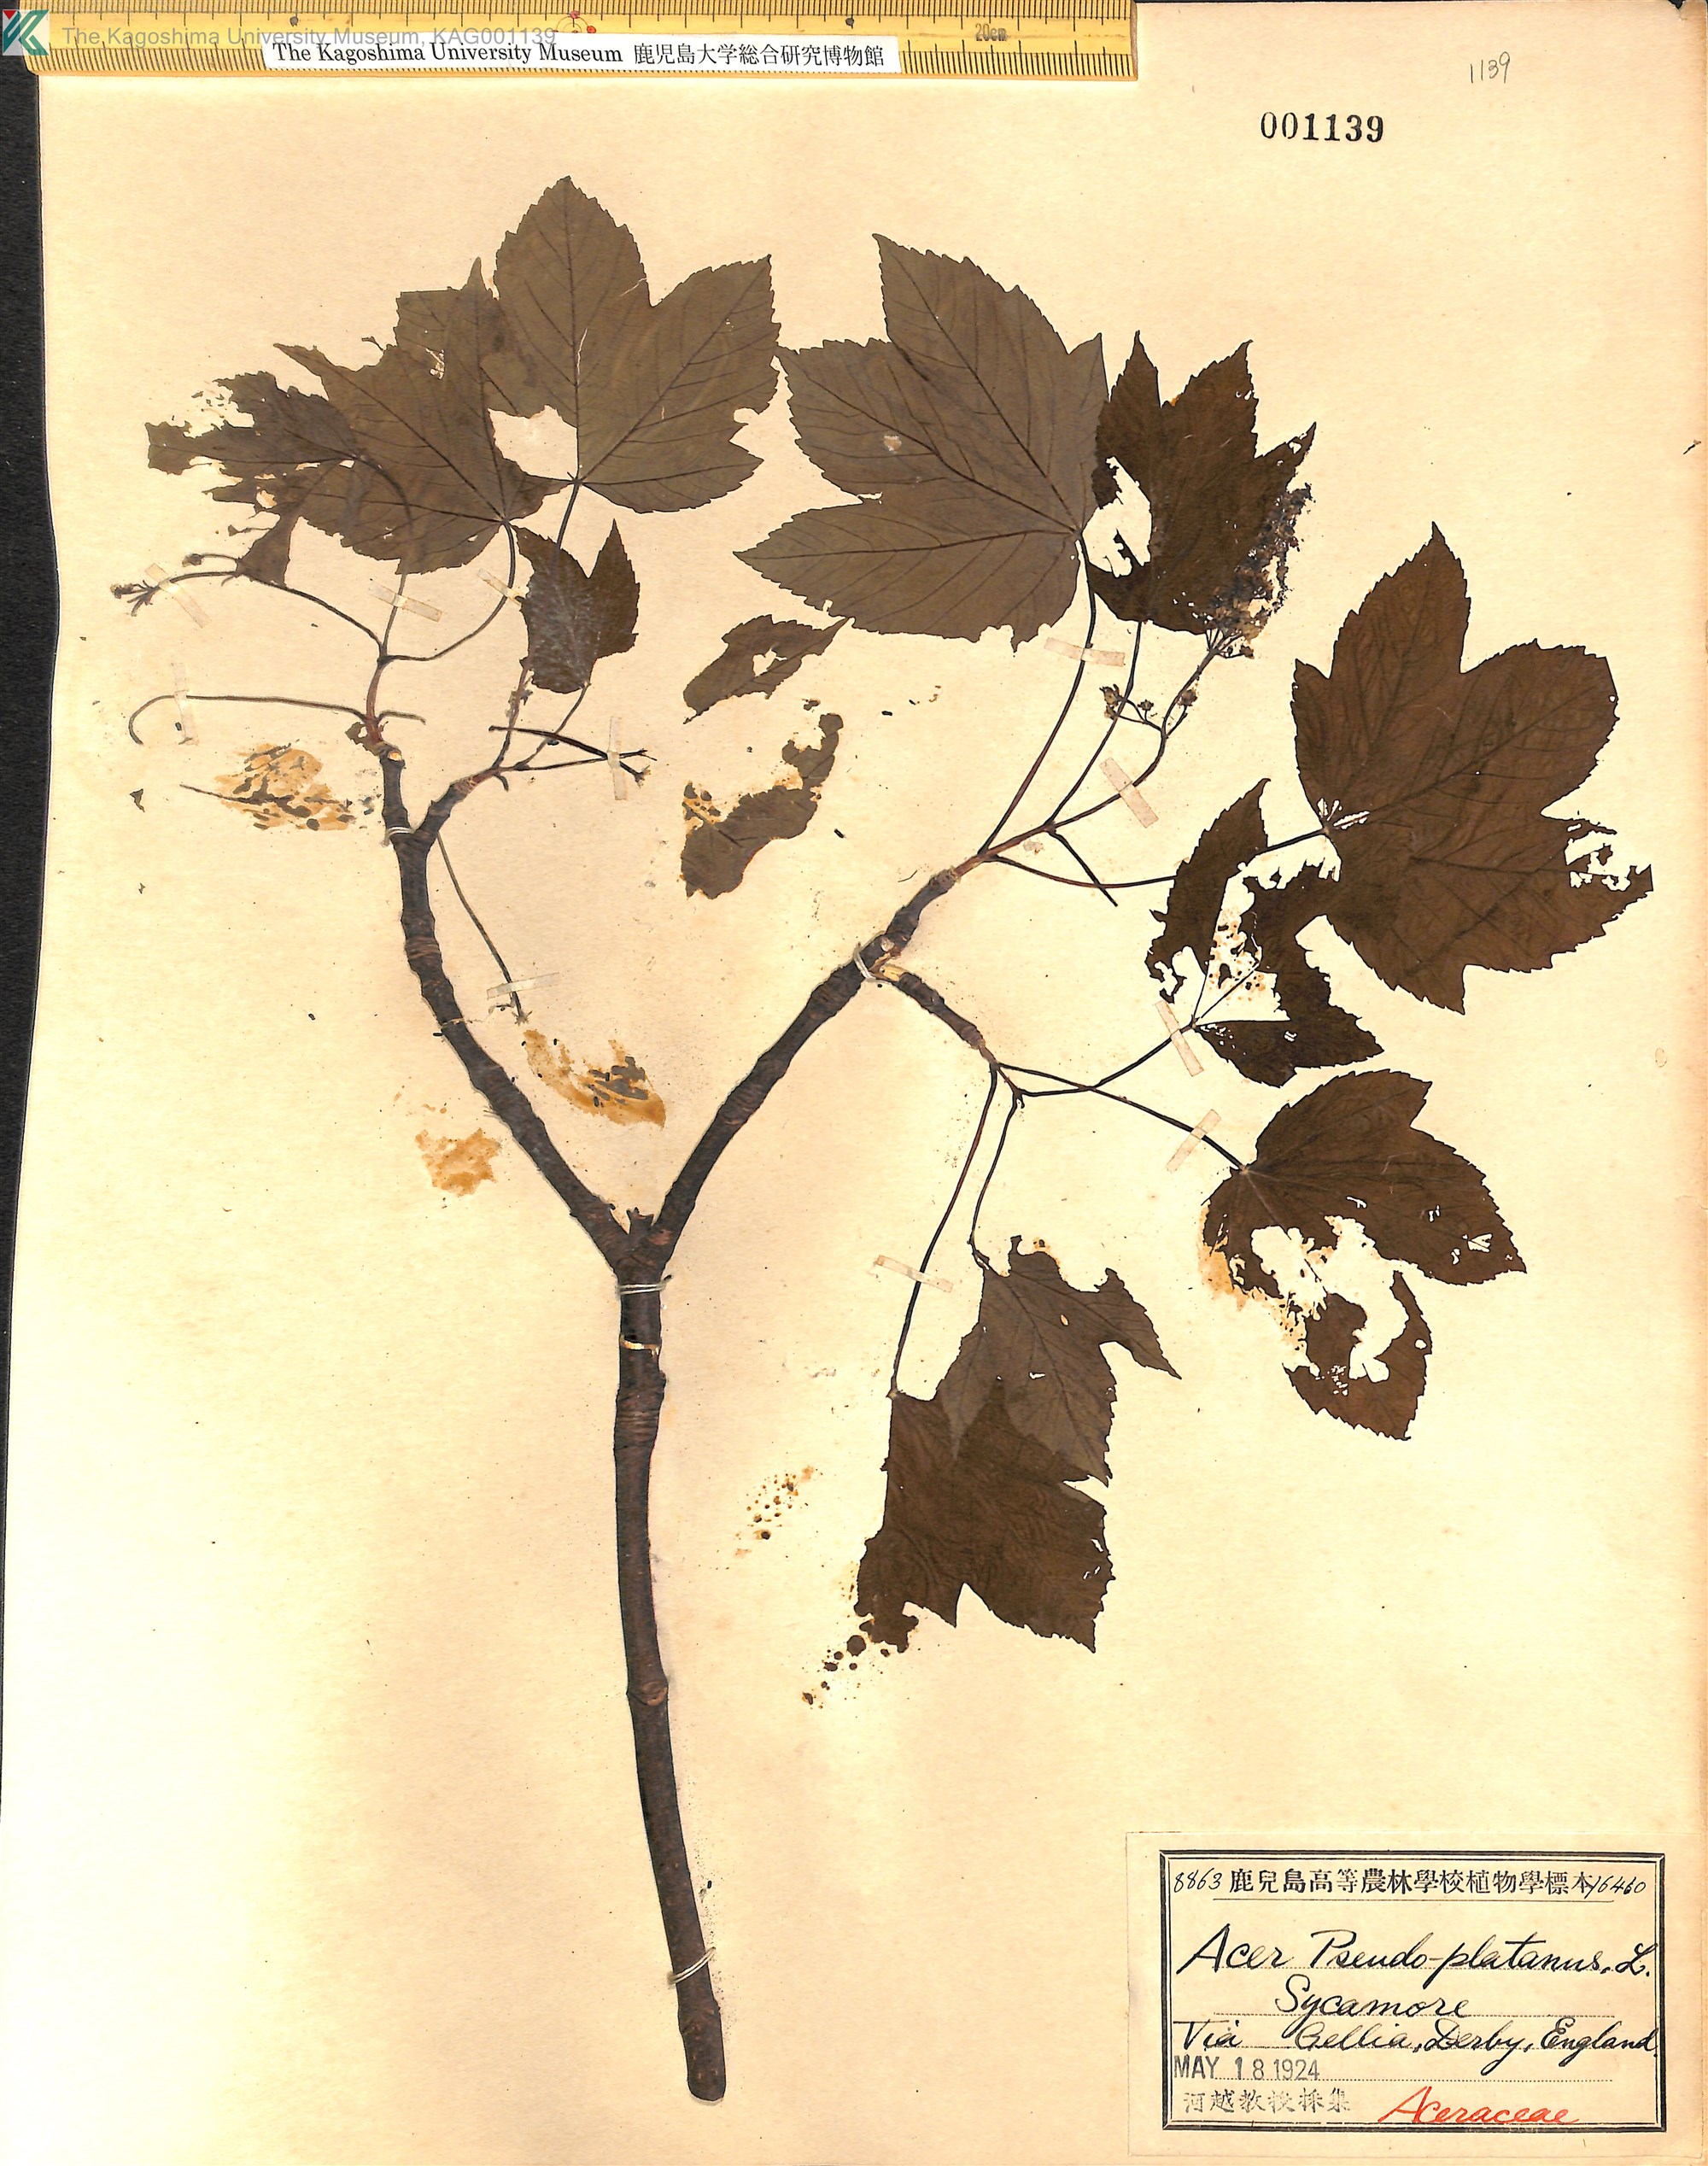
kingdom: Plantae
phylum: Tracheophyta
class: Magnoliopsida
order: Sapindales
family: Sapindaceae
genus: Acer
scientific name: Acer pseudoplatanus
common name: Sycamore
